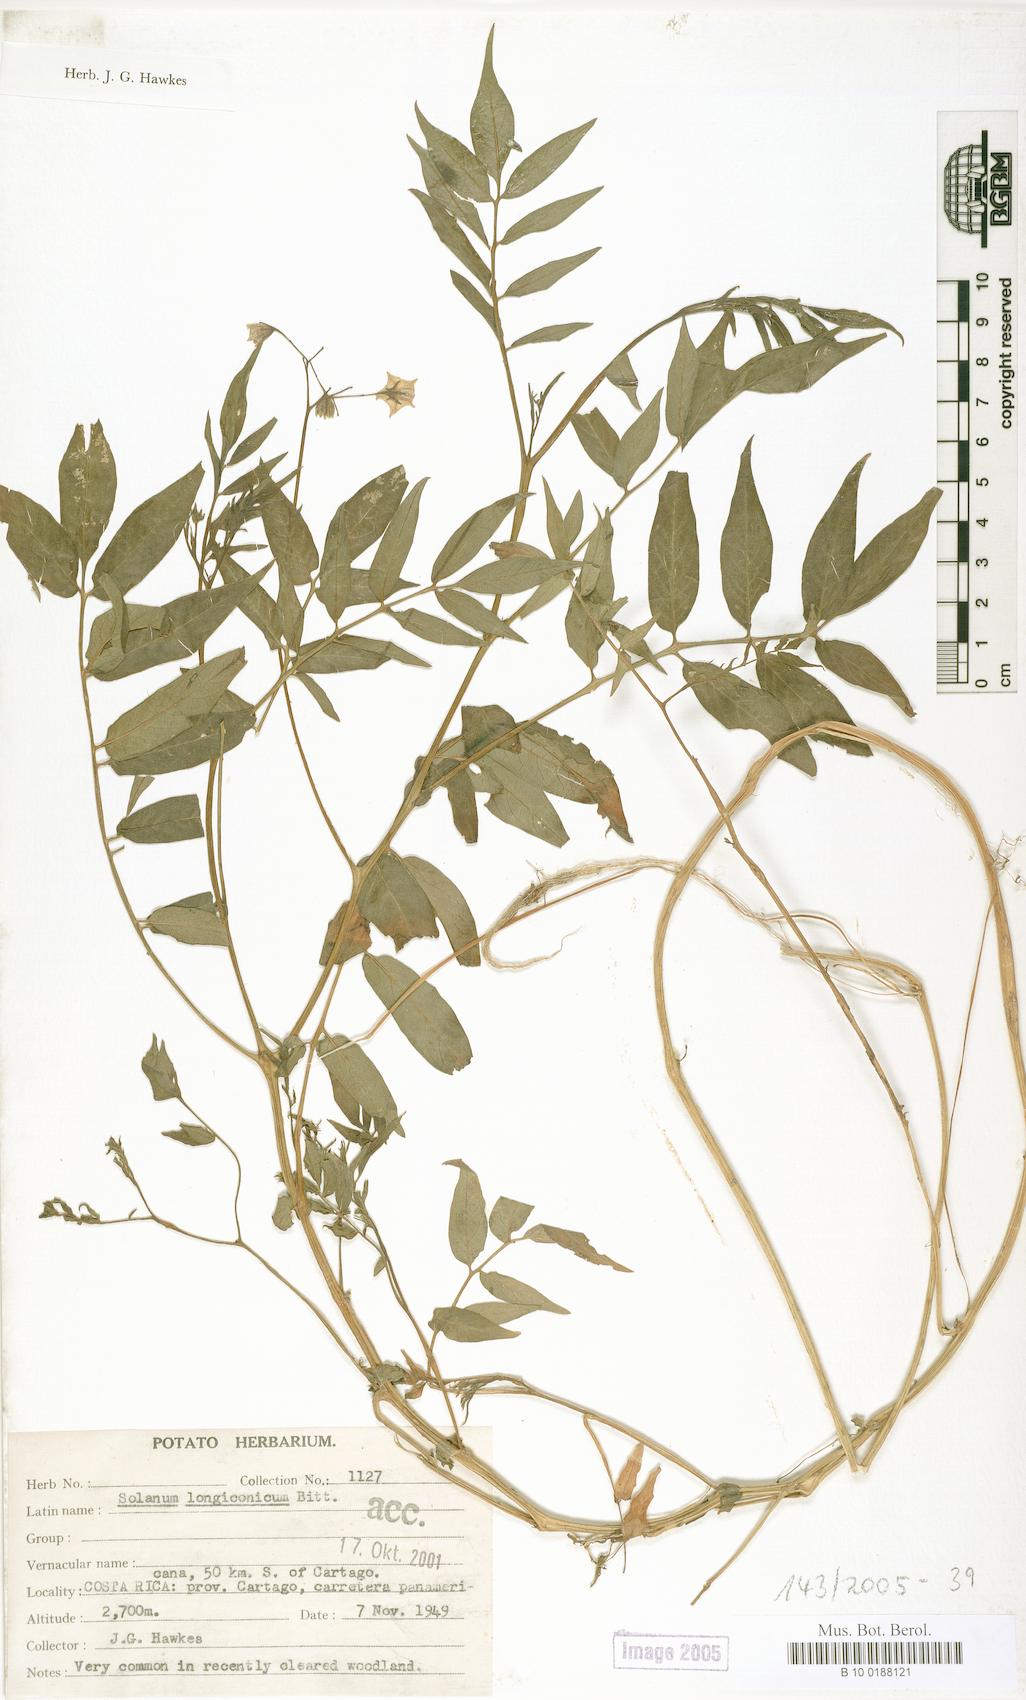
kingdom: Plantae
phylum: Tracheophyta
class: Magnoliopsida
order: Solanales
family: Solanaceae
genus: Solanum
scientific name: Solanum longiconicum
